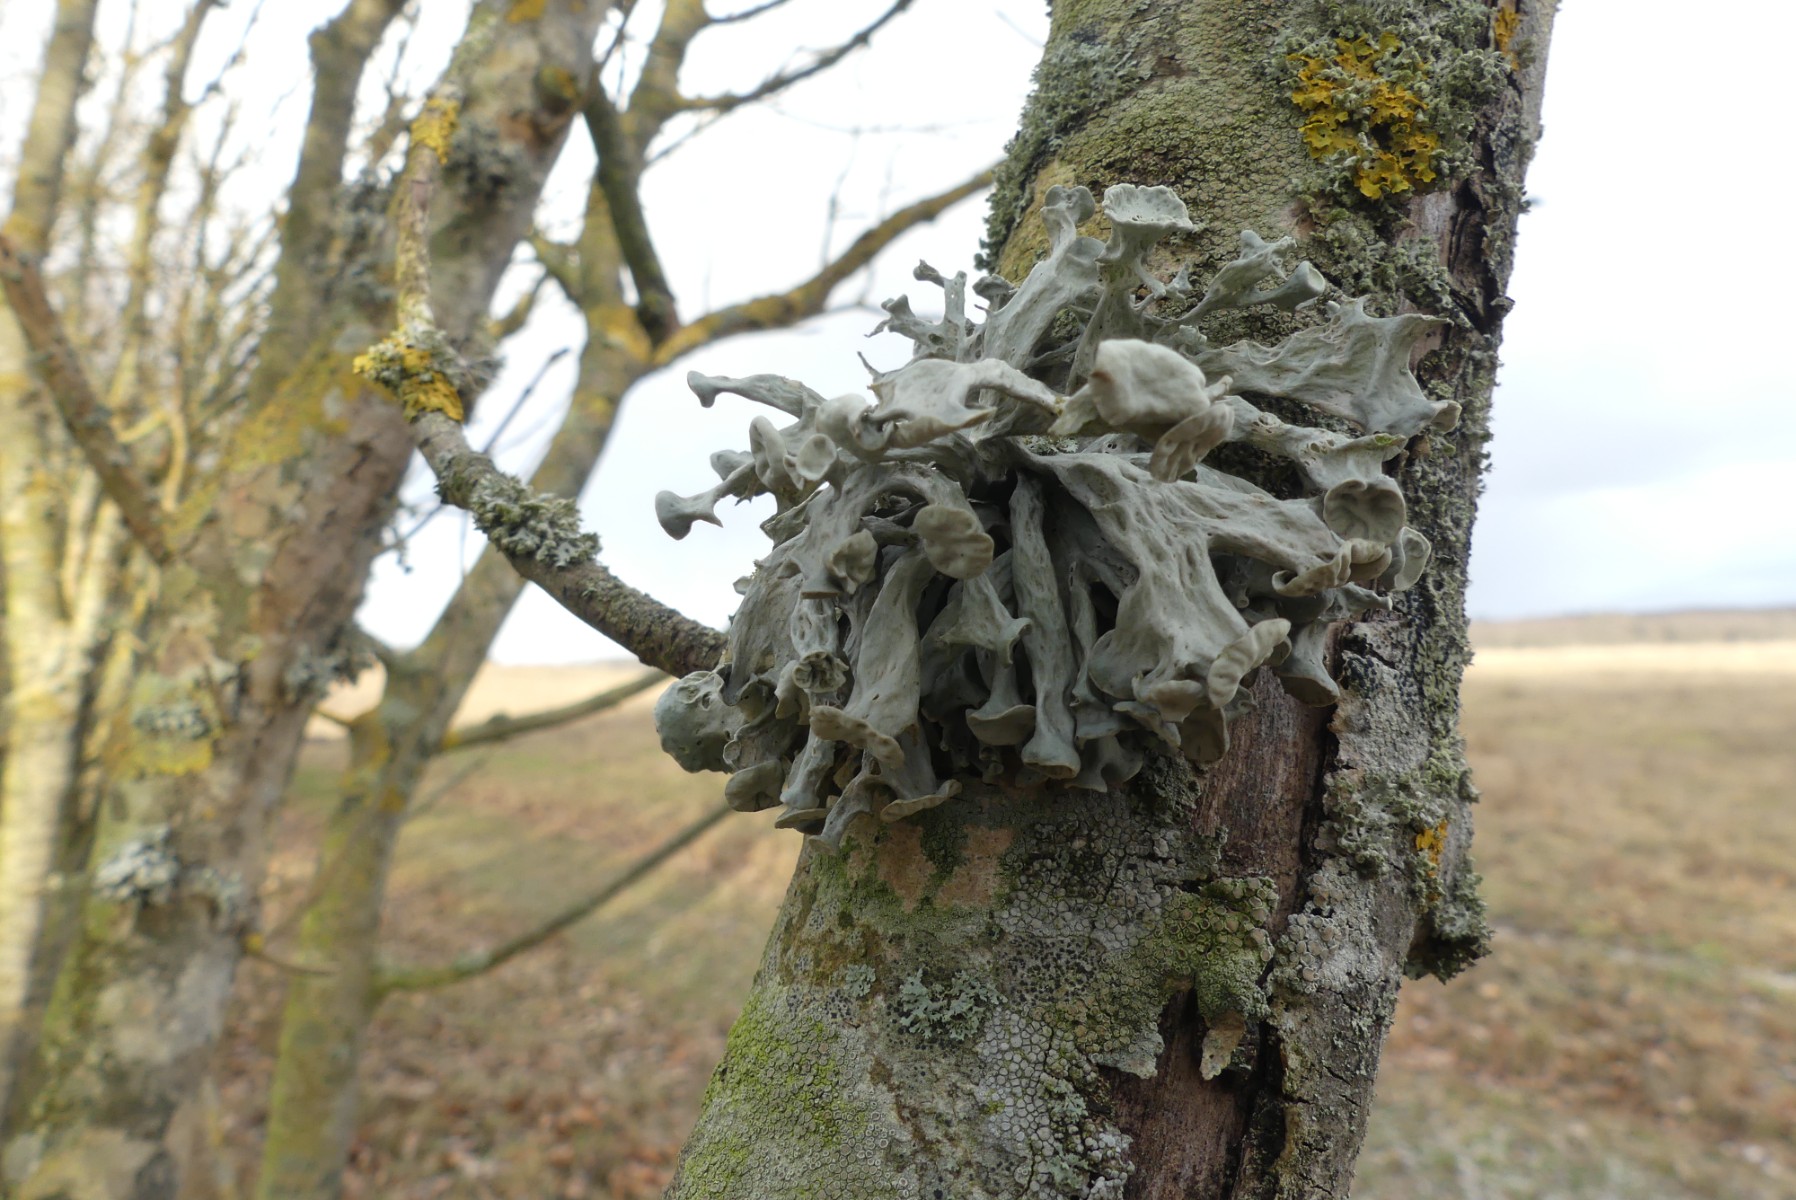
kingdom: Fungi
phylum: Ascomycota
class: Lecanoromycetes
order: Lecanorales
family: Ramalinaceae
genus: Ramalina
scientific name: Ramalina fastigiata
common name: tue-grenlav
